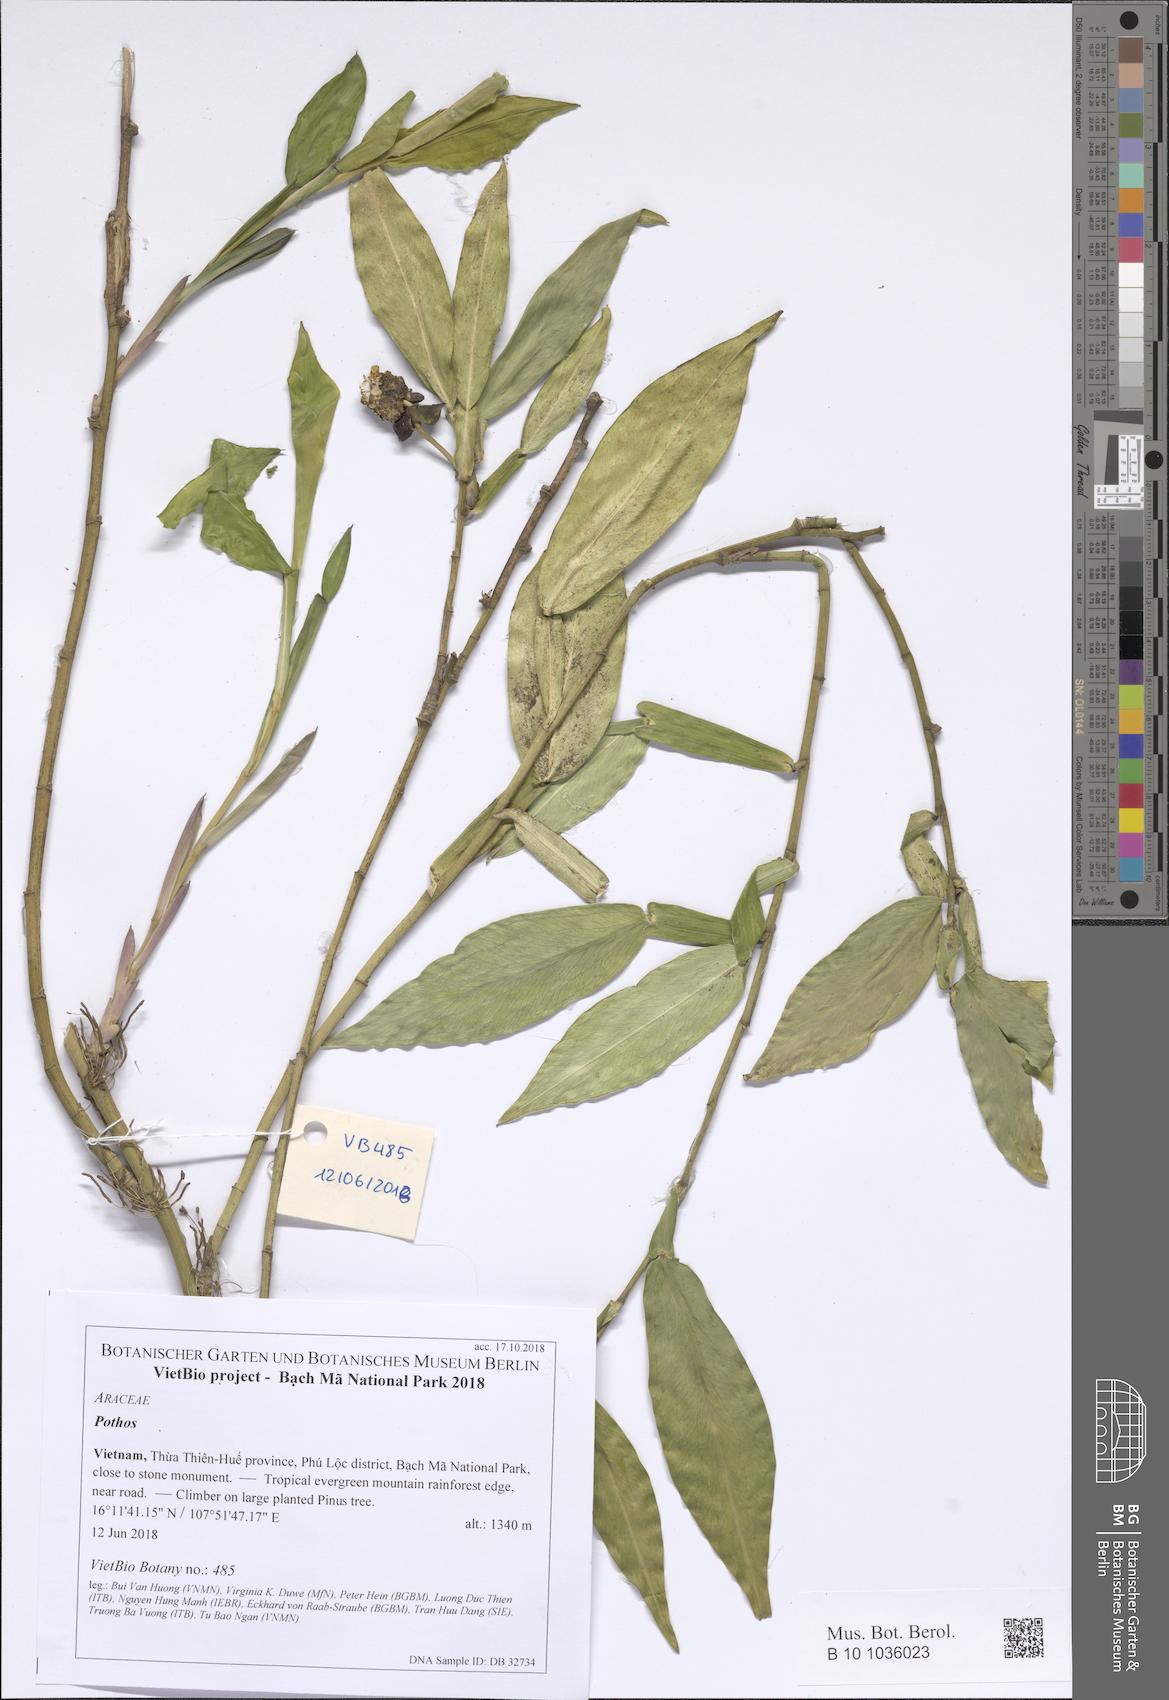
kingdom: Plantae
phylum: Tracheophyta
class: Liliopsida
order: Alismatales
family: Araceae
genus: Pothos
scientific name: Pothos chinensis
